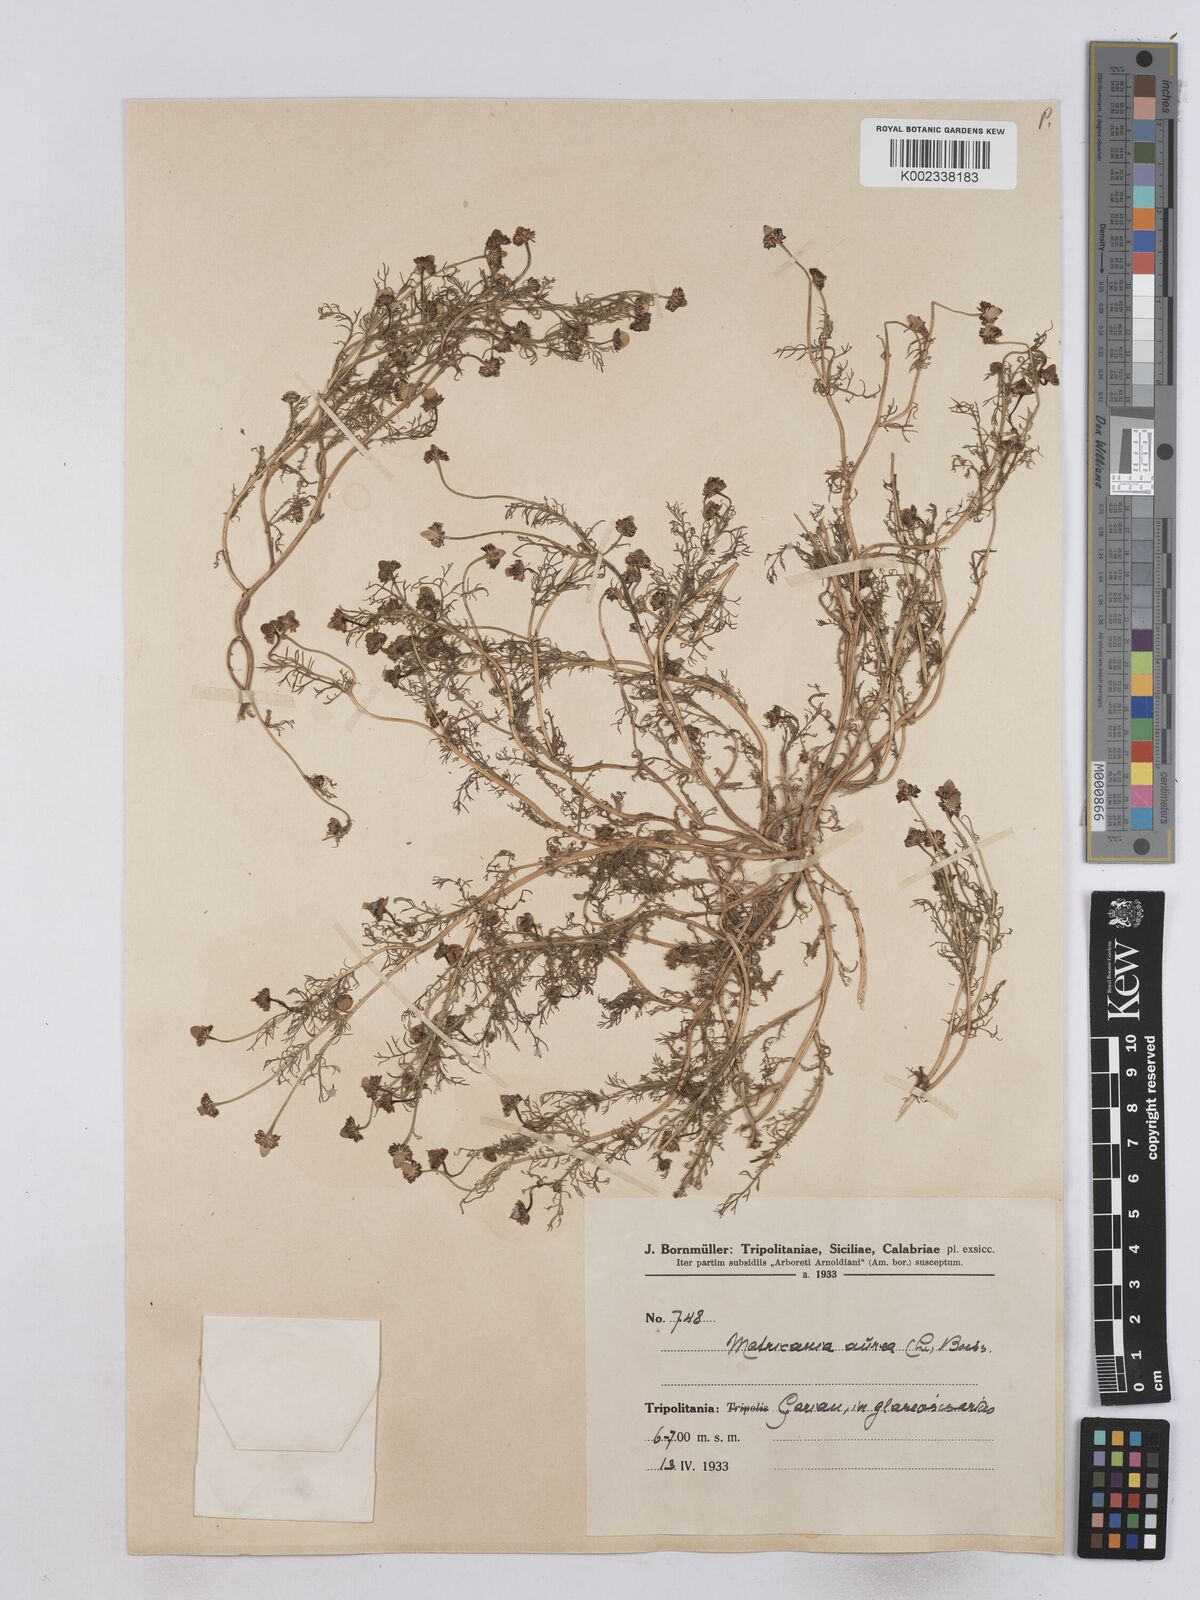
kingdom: Plantae
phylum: Tracheophyta
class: Magnoliopsida
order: Asterales
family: Asteraceae
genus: Matricaria
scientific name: Matricaria aurea
